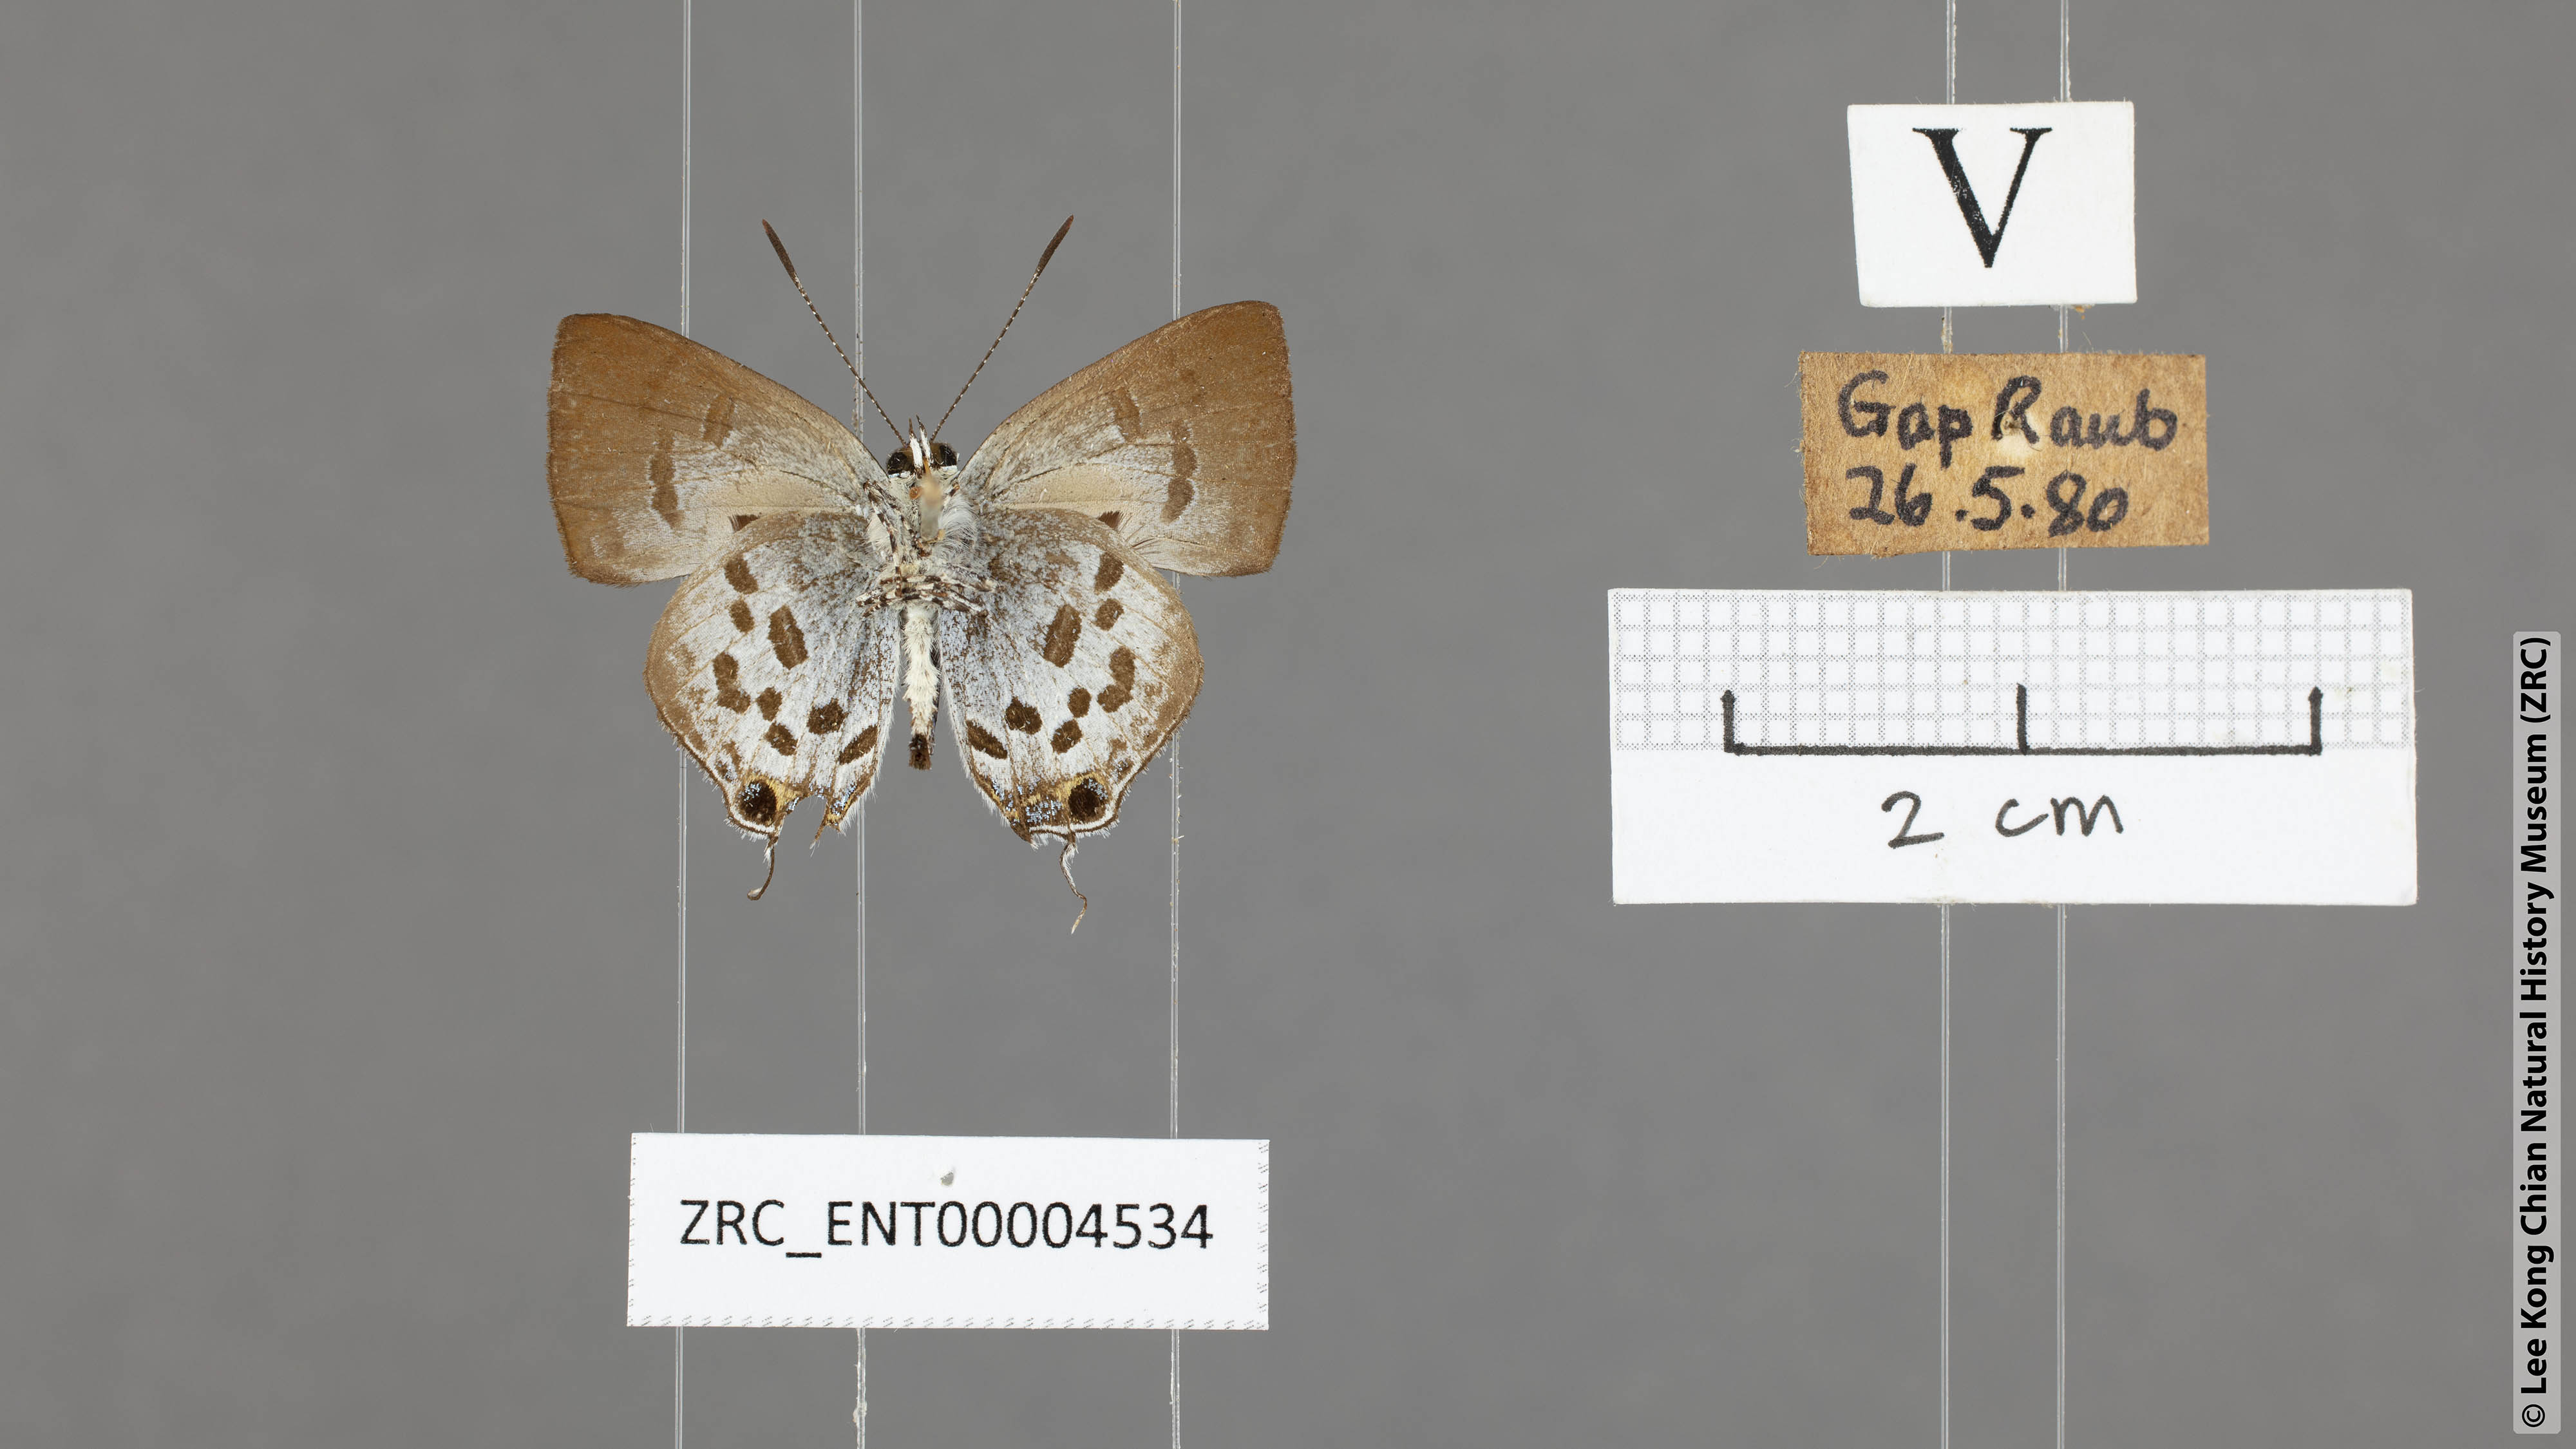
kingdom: Animalia
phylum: Arthropoda
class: Insecta
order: Lepidoptera
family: Lycaenidae
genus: Sinthusa
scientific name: Sinthusa malika
